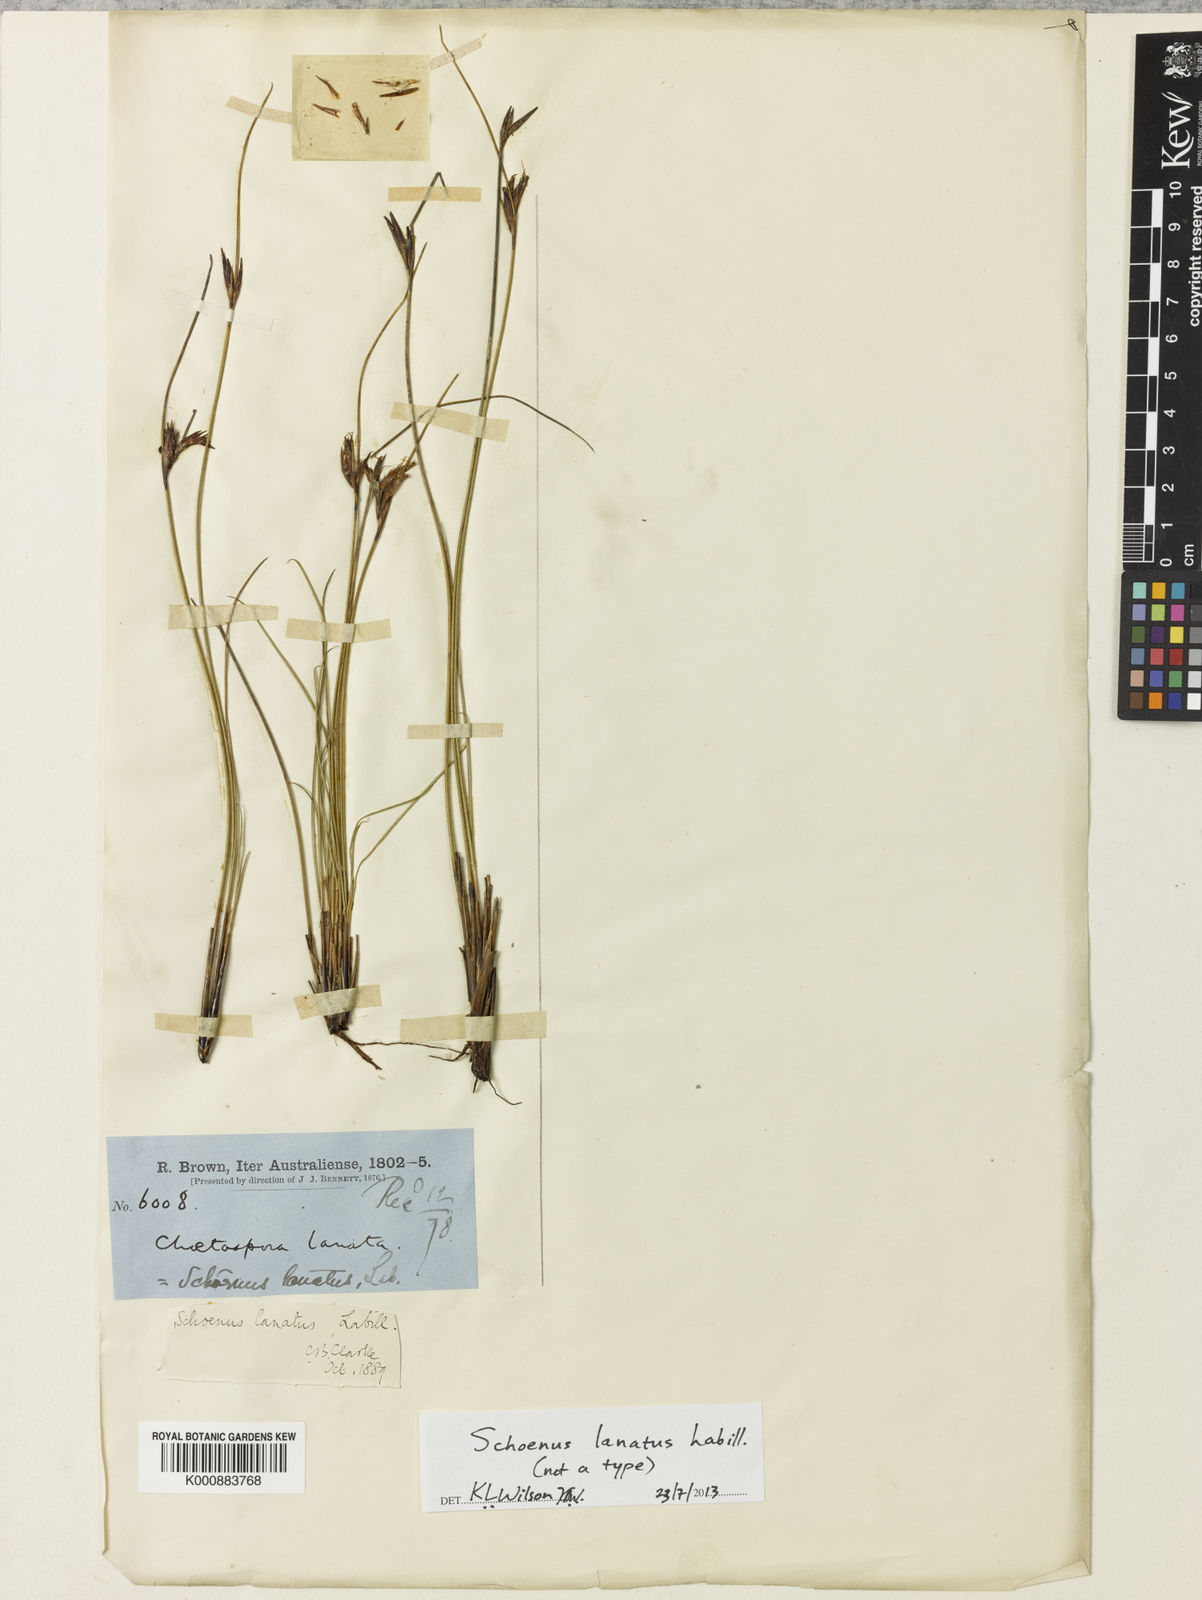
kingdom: Plantae
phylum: Tracheophyta
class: Liliopsida
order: Poales
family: Cyperaceae
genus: Schoenus
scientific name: Schoenus lanatus
